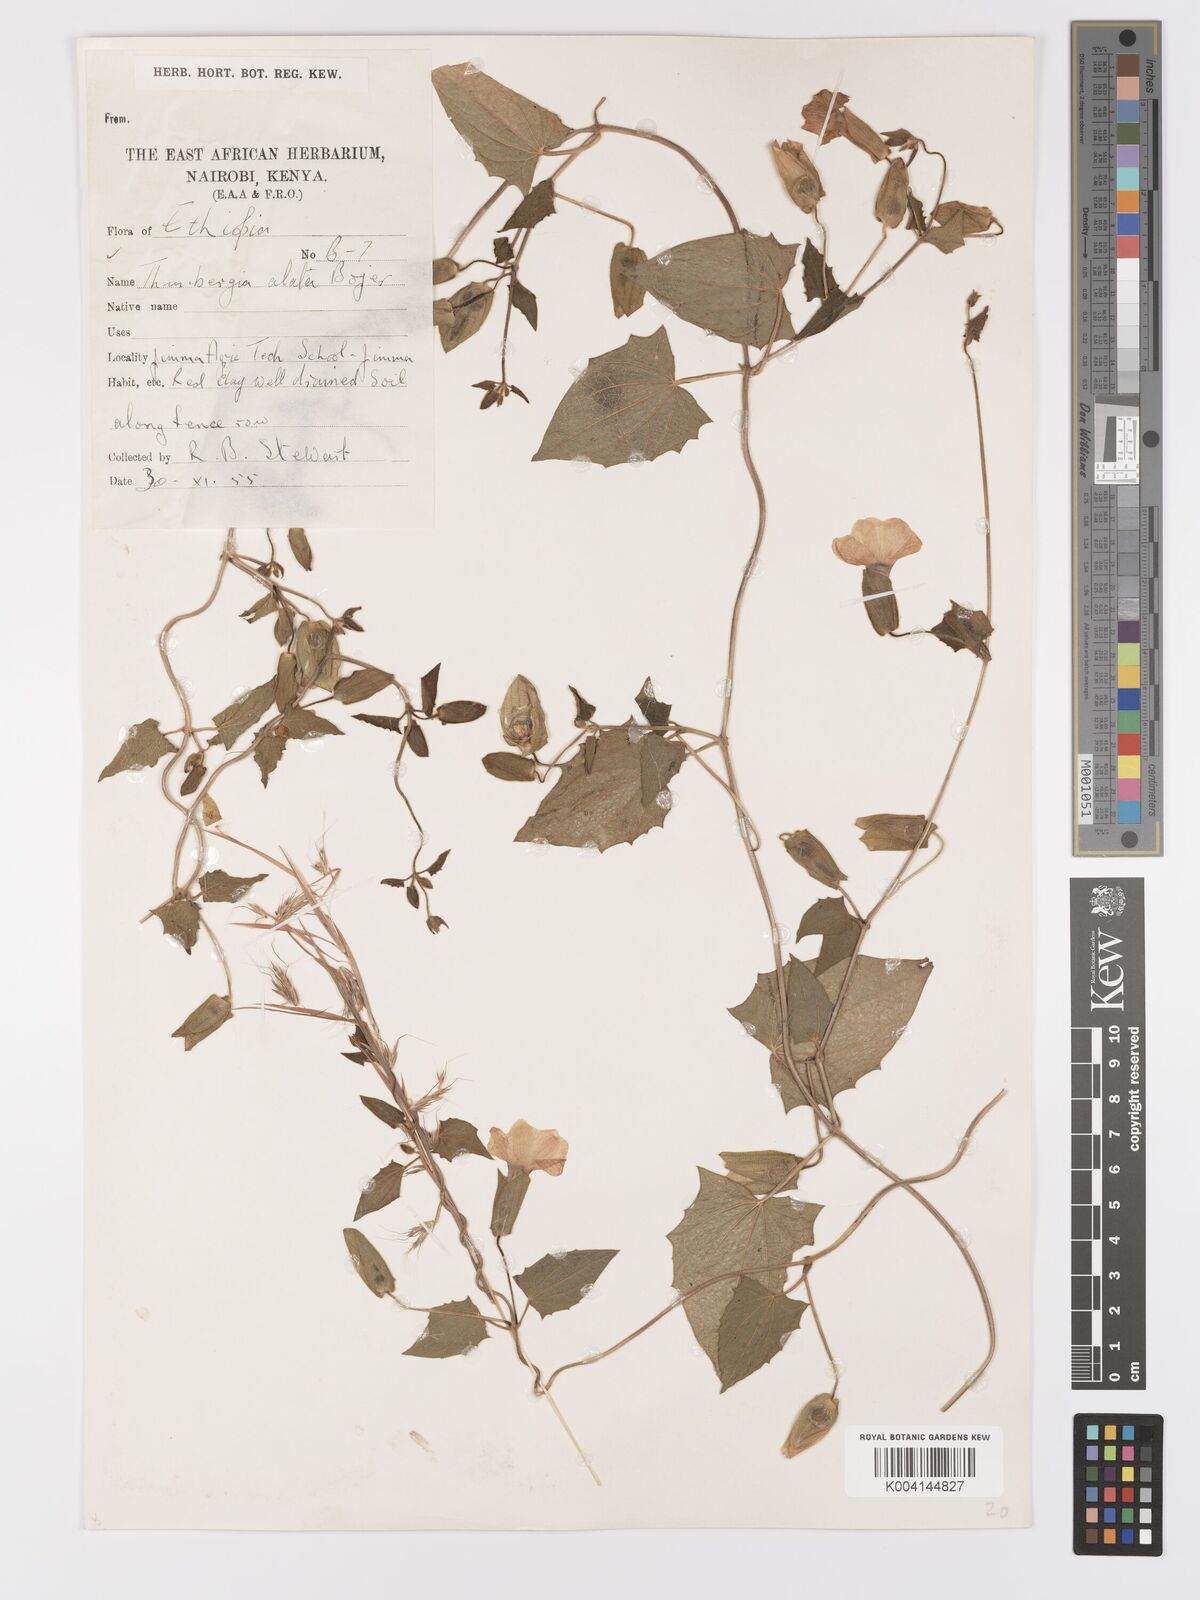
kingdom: Plantae
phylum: Tracheophyta
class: Magnoliopsida
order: Lamiales
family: Acanthaceae
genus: Thunbergia
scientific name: Thunbergia alata
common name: Blackeyed susan vine
